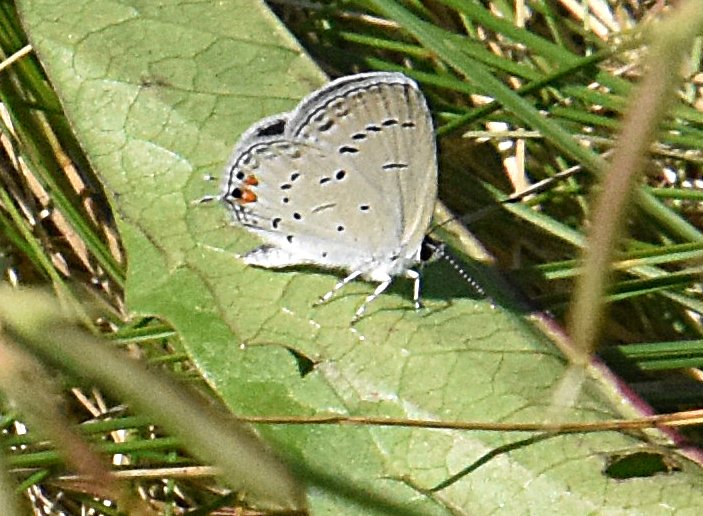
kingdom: Animalia
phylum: Arthropoda
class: Insecta
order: Lepidoptera
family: Lycaenidae
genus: Elkalyce
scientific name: Elkalyce comyntas
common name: Eastern Tailed-Blue
